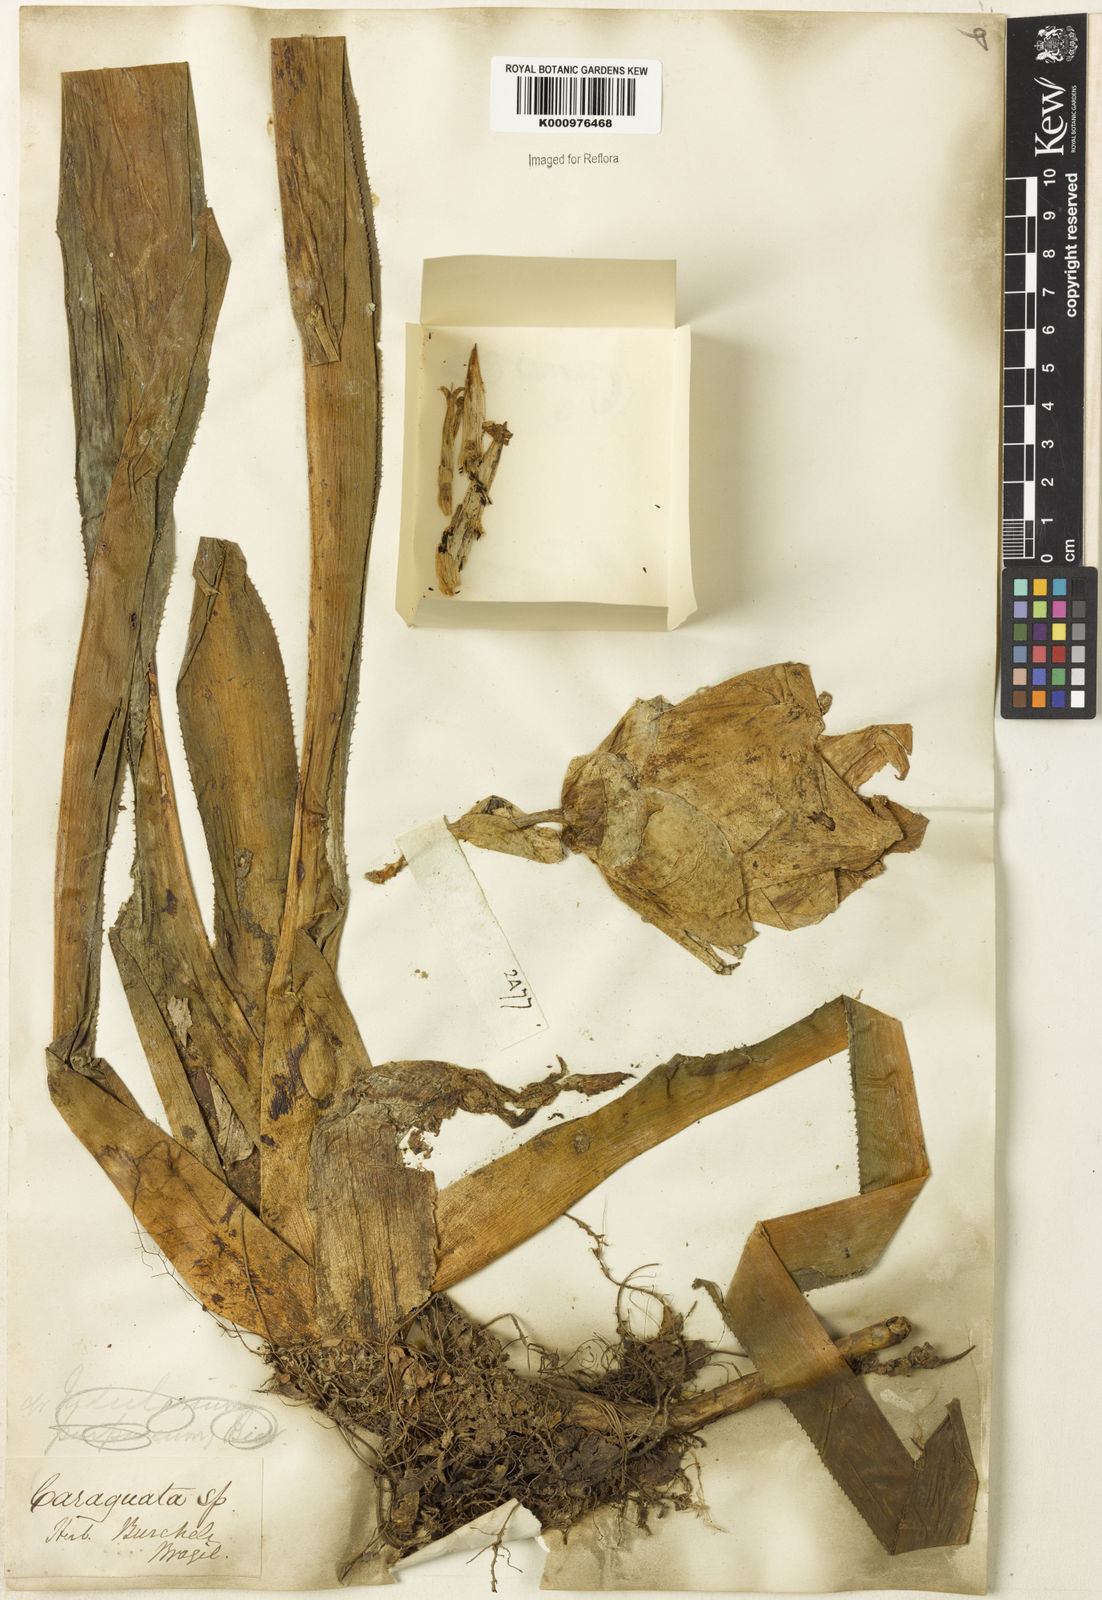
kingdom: Plantae
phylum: Tracheophyta
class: Liliopsida
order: Poales
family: Bromeliaceae
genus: Nidularium
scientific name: Nidularium ferdinando-coburgii
